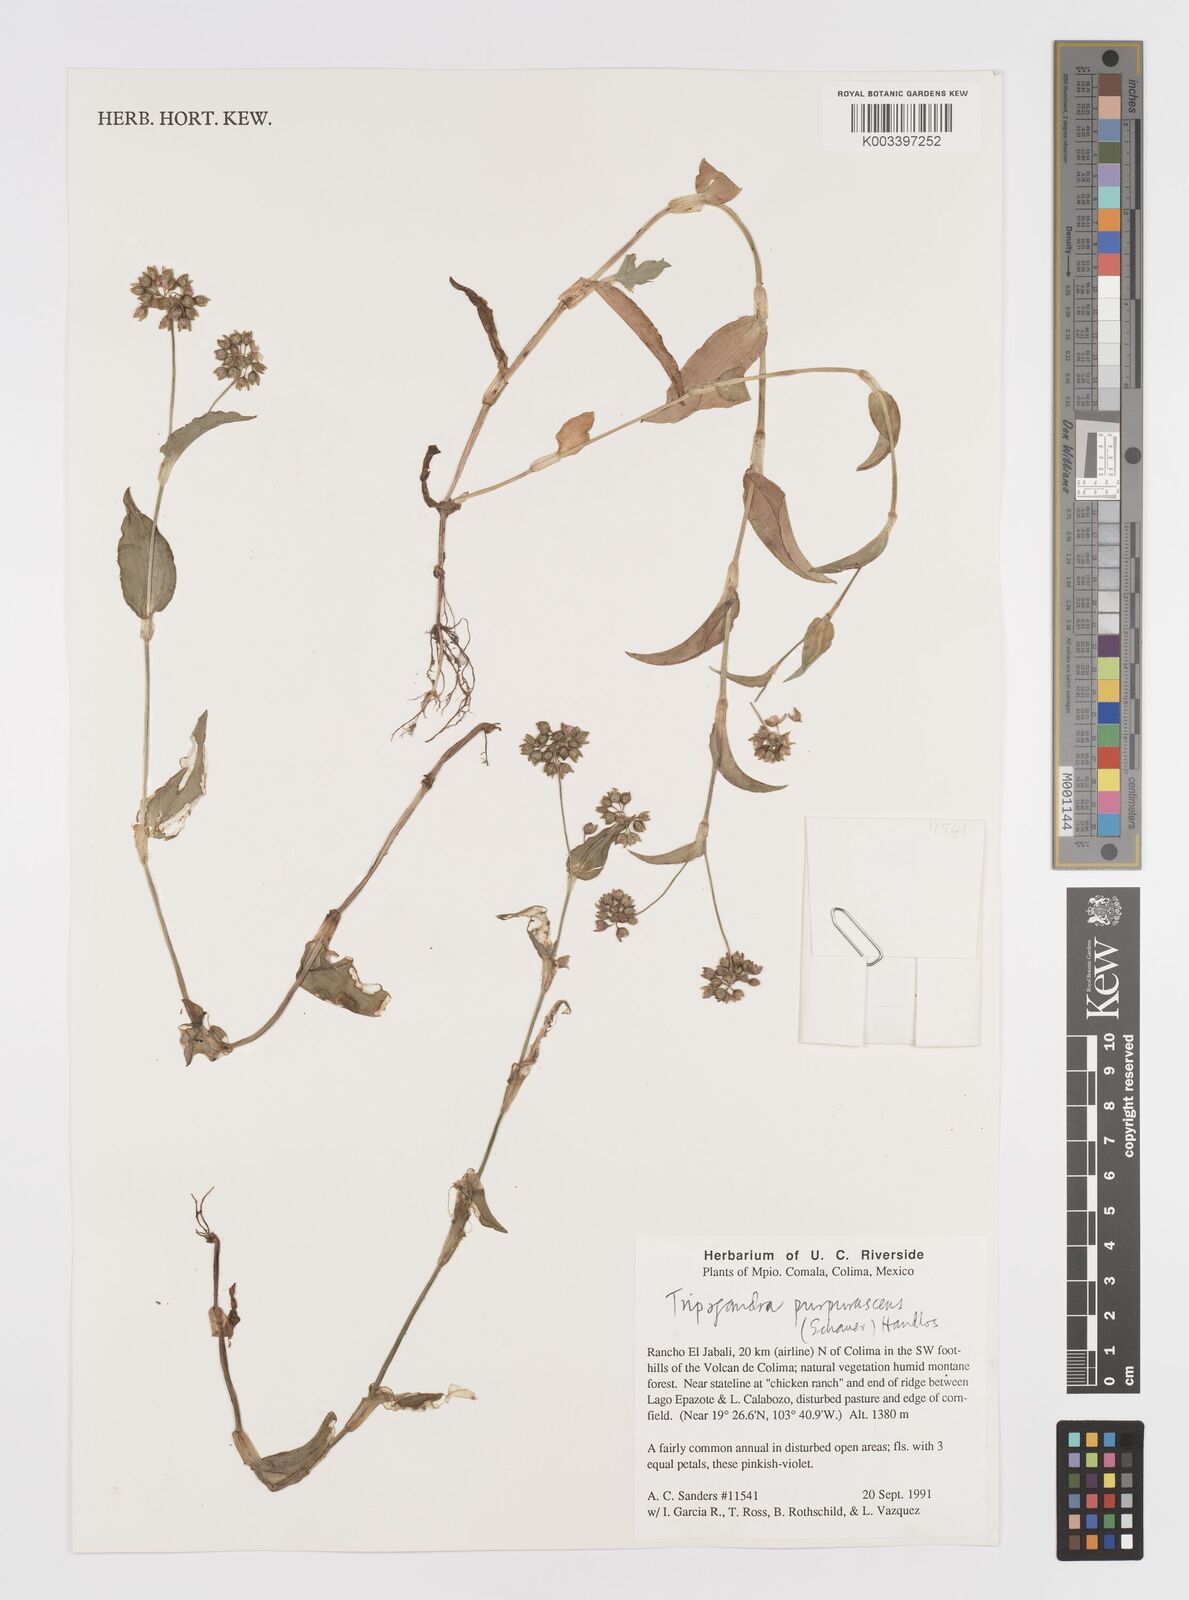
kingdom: Plantae
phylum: Tracheophyta
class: Liliopsida
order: Commelinales
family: Commelinaceae
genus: Callisia
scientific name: Callisia purpurascens
